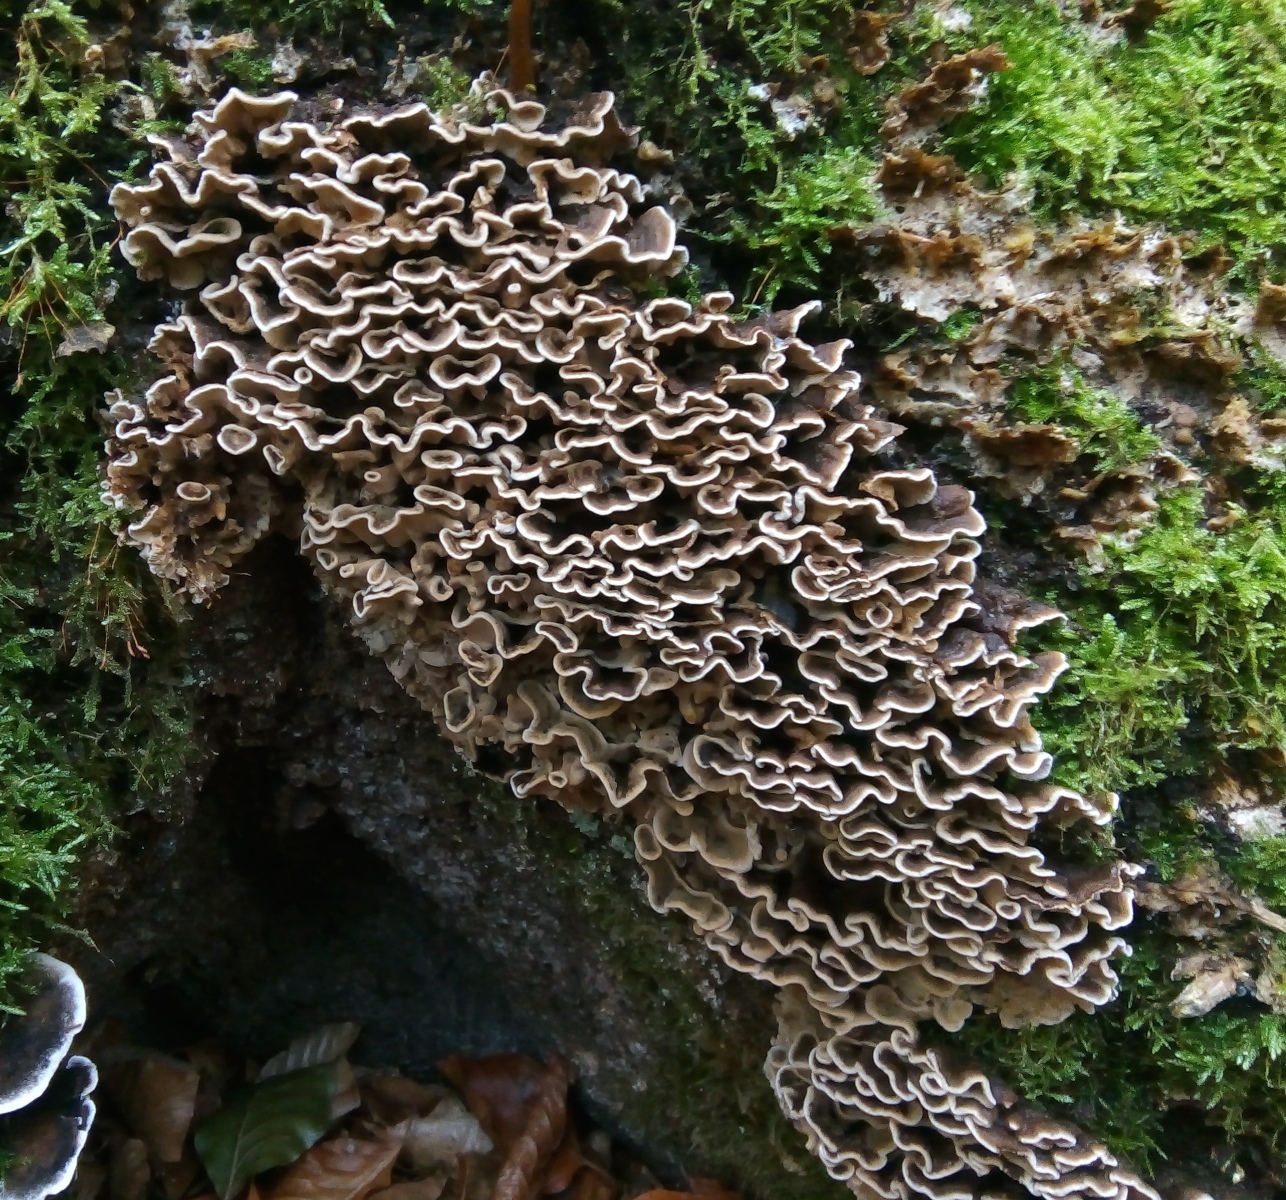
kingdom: Fungi
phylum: Basidiomycota
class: Agaricomycetes
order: Polyporales
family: Polyporaceae
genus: Trametes
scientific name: Trametes versicolor
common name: broget læderporesvamp
